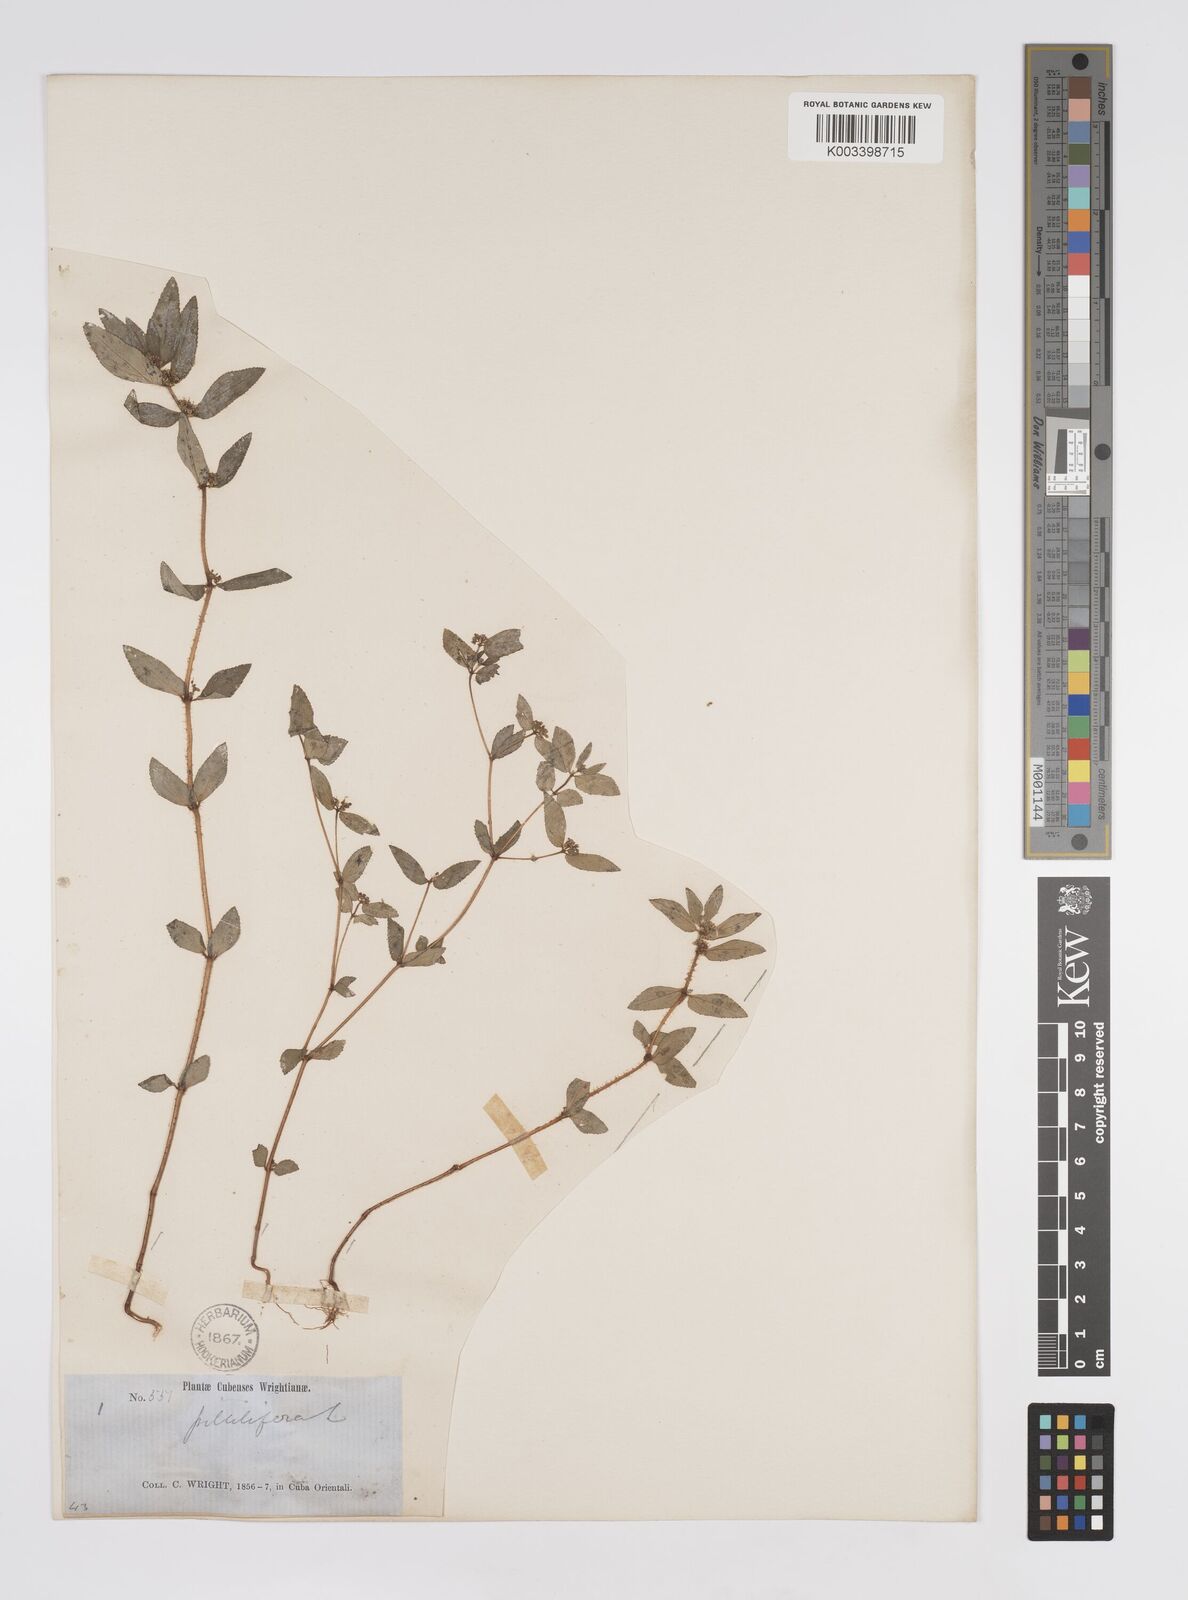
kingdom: Plantae
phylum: Tracheophyta
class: Magnoliopsida
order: Malpighiales
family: Euphorbiaceae
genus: Euphorbia
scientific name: Euphorbia hirta
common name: Pillpod sandmat
